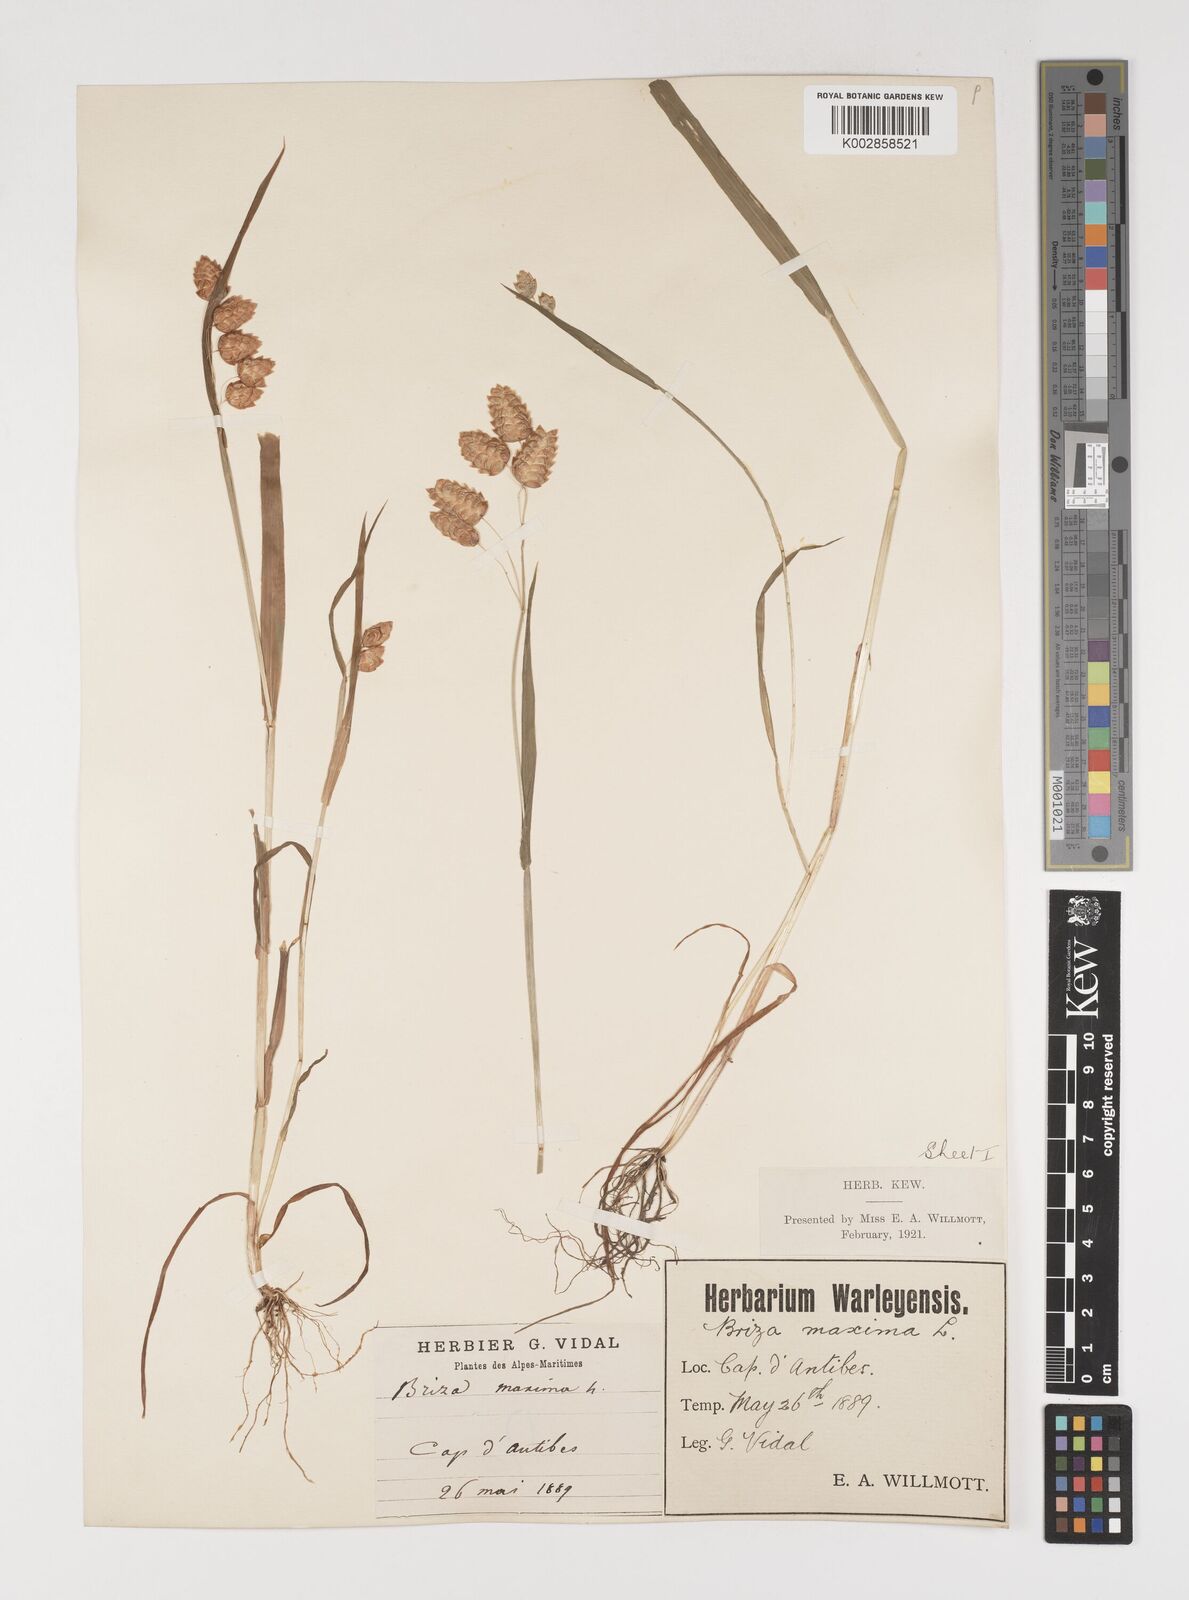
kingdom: Plantae
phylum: Tracheophyta
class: Liliopsida
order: Poales
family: Poaceae
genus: Briza
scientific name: Briza maxima
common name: Big quakinggrass
